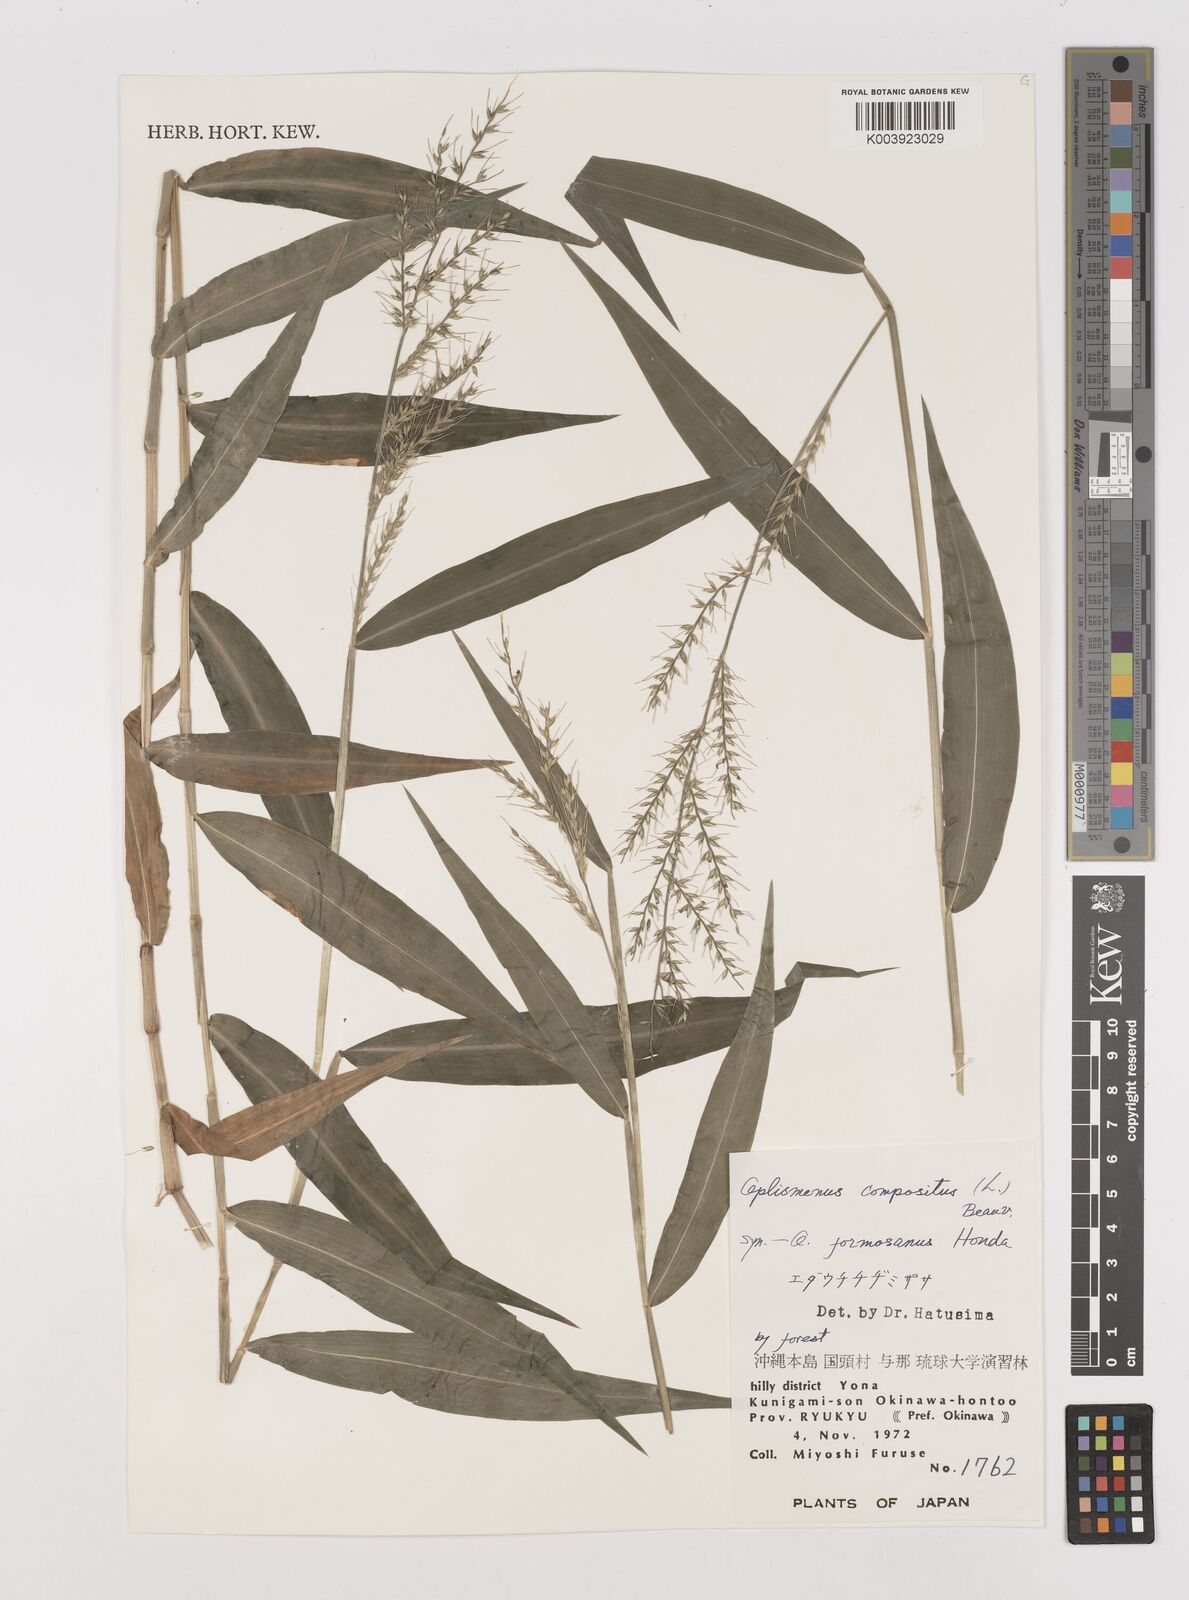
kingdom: Plantae
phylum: Tracheophyta
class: Liliopsida
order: Poales
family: Poaceae
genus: Oplismenus
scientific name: Oplismenus compositus
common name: Running mountain grass
